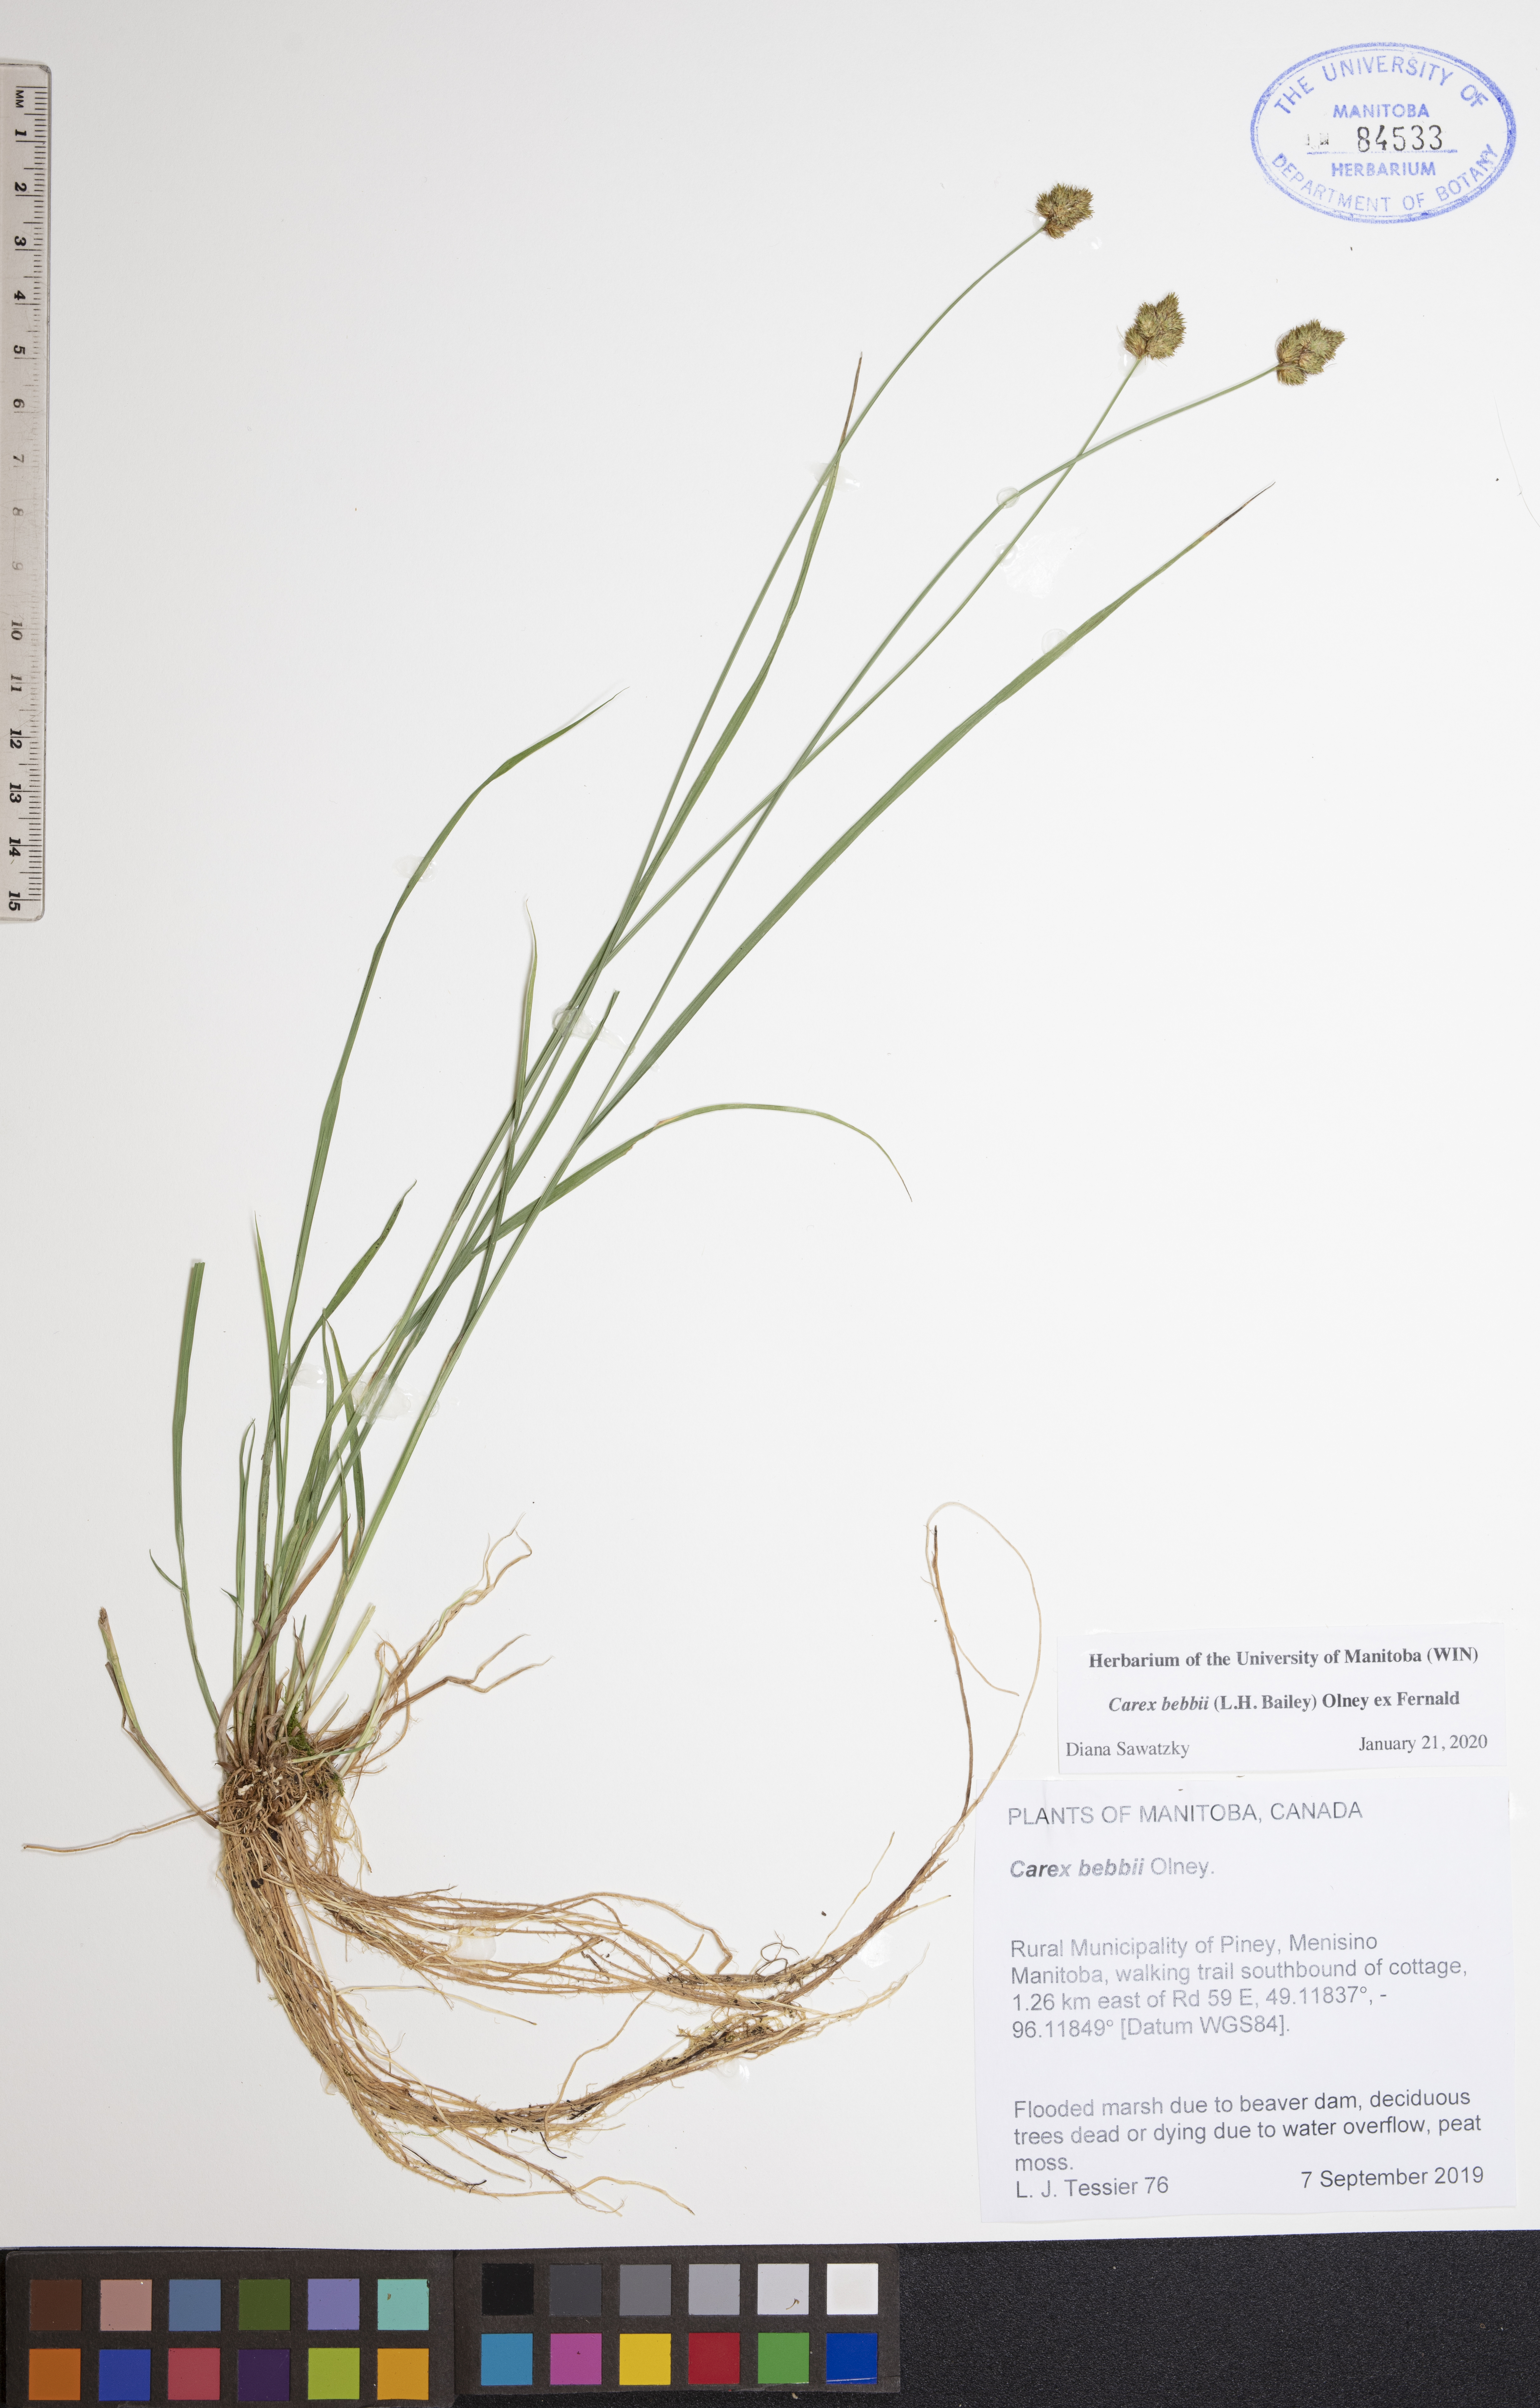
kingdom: Plantae
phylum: Tracheophyta
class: Liliopsida
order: Poales
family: Cyperaceae
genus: Carex
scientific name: Carex bebbii
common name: Bebb's sedge
